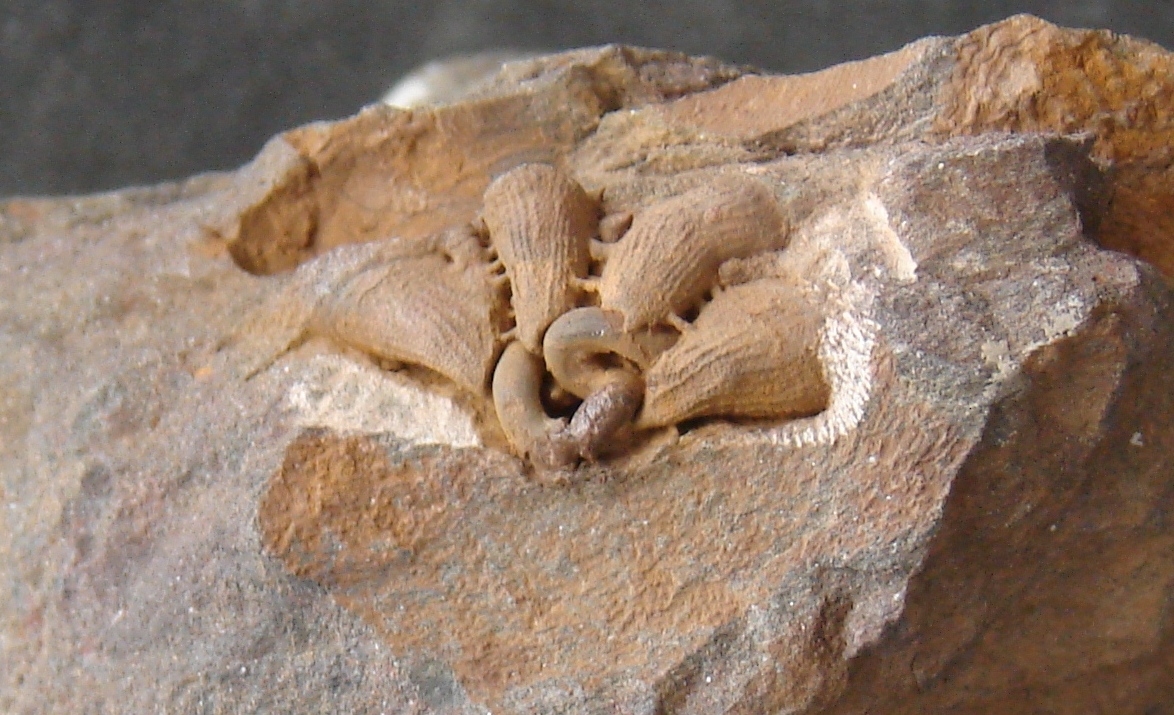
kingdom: Animalia
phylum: Cnidaria
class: Anthozoa
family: Favositidae
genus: Kerforneidictyum
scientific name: Kerforneidictyum
